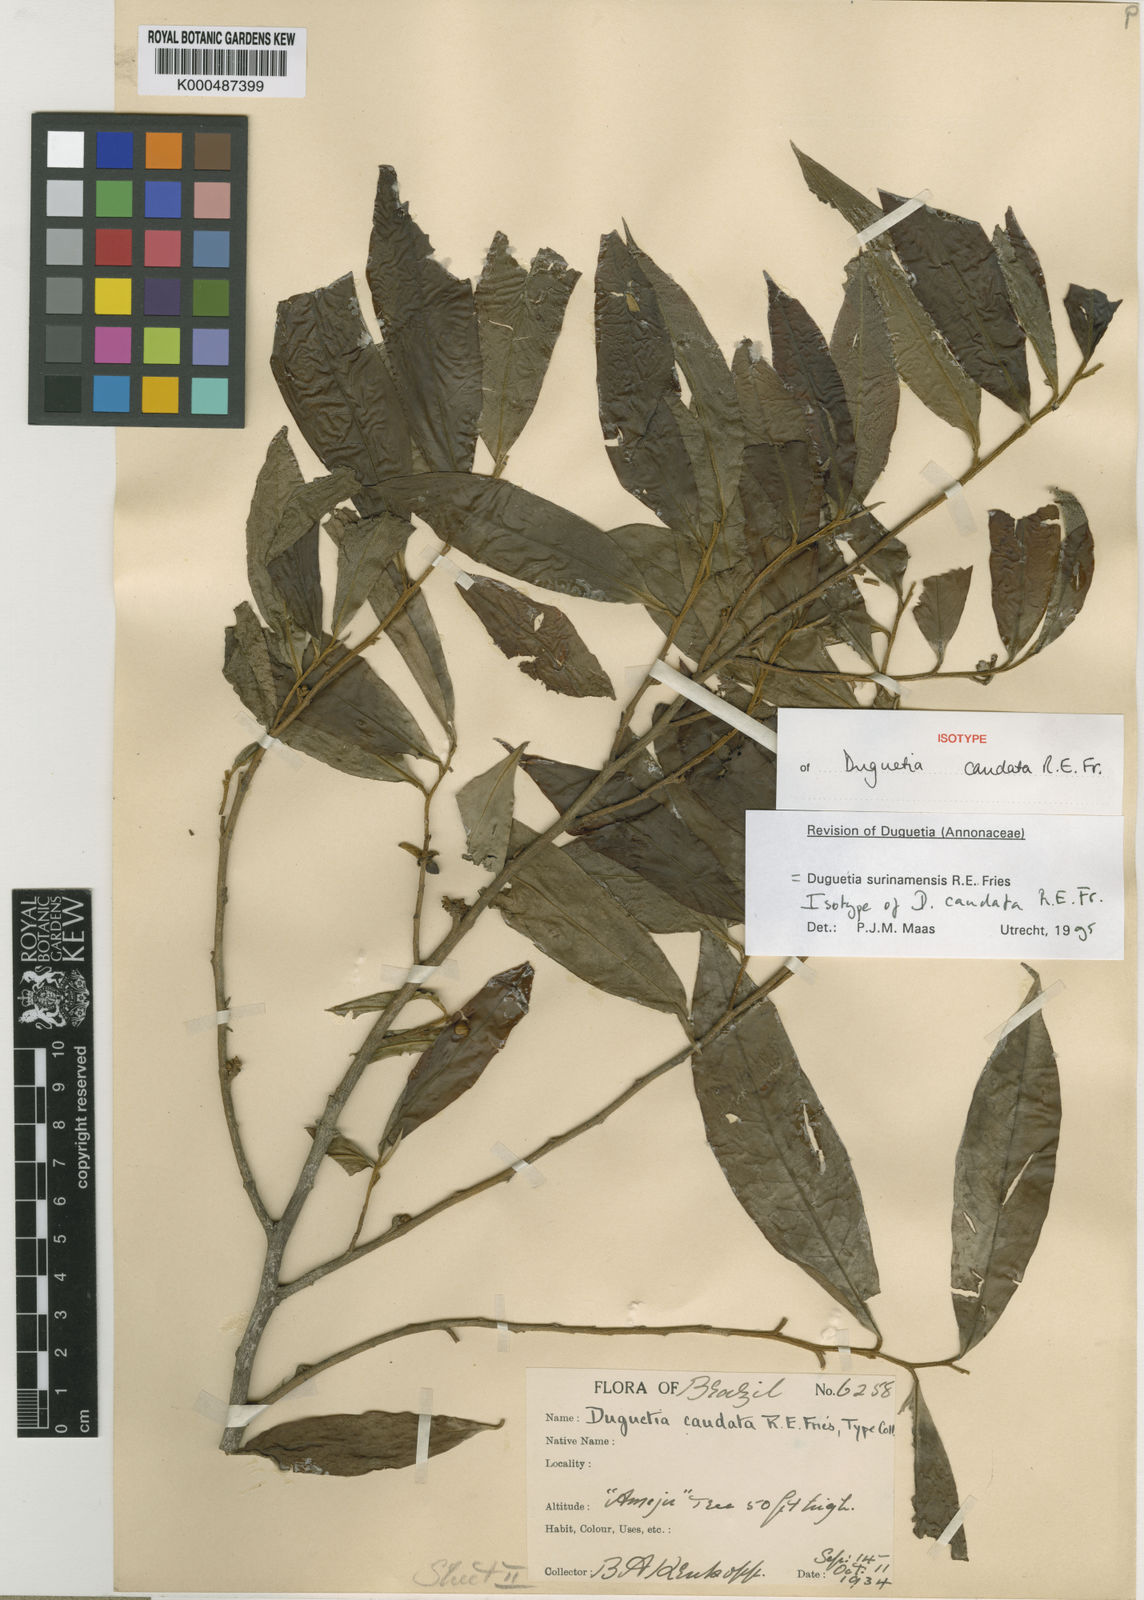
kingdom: Plantae
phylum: Tracheophyta
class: Magnoliopsida
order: Magnoliales
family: Annonaceae
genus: Duguetia
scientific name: Duguetia surinamensis
